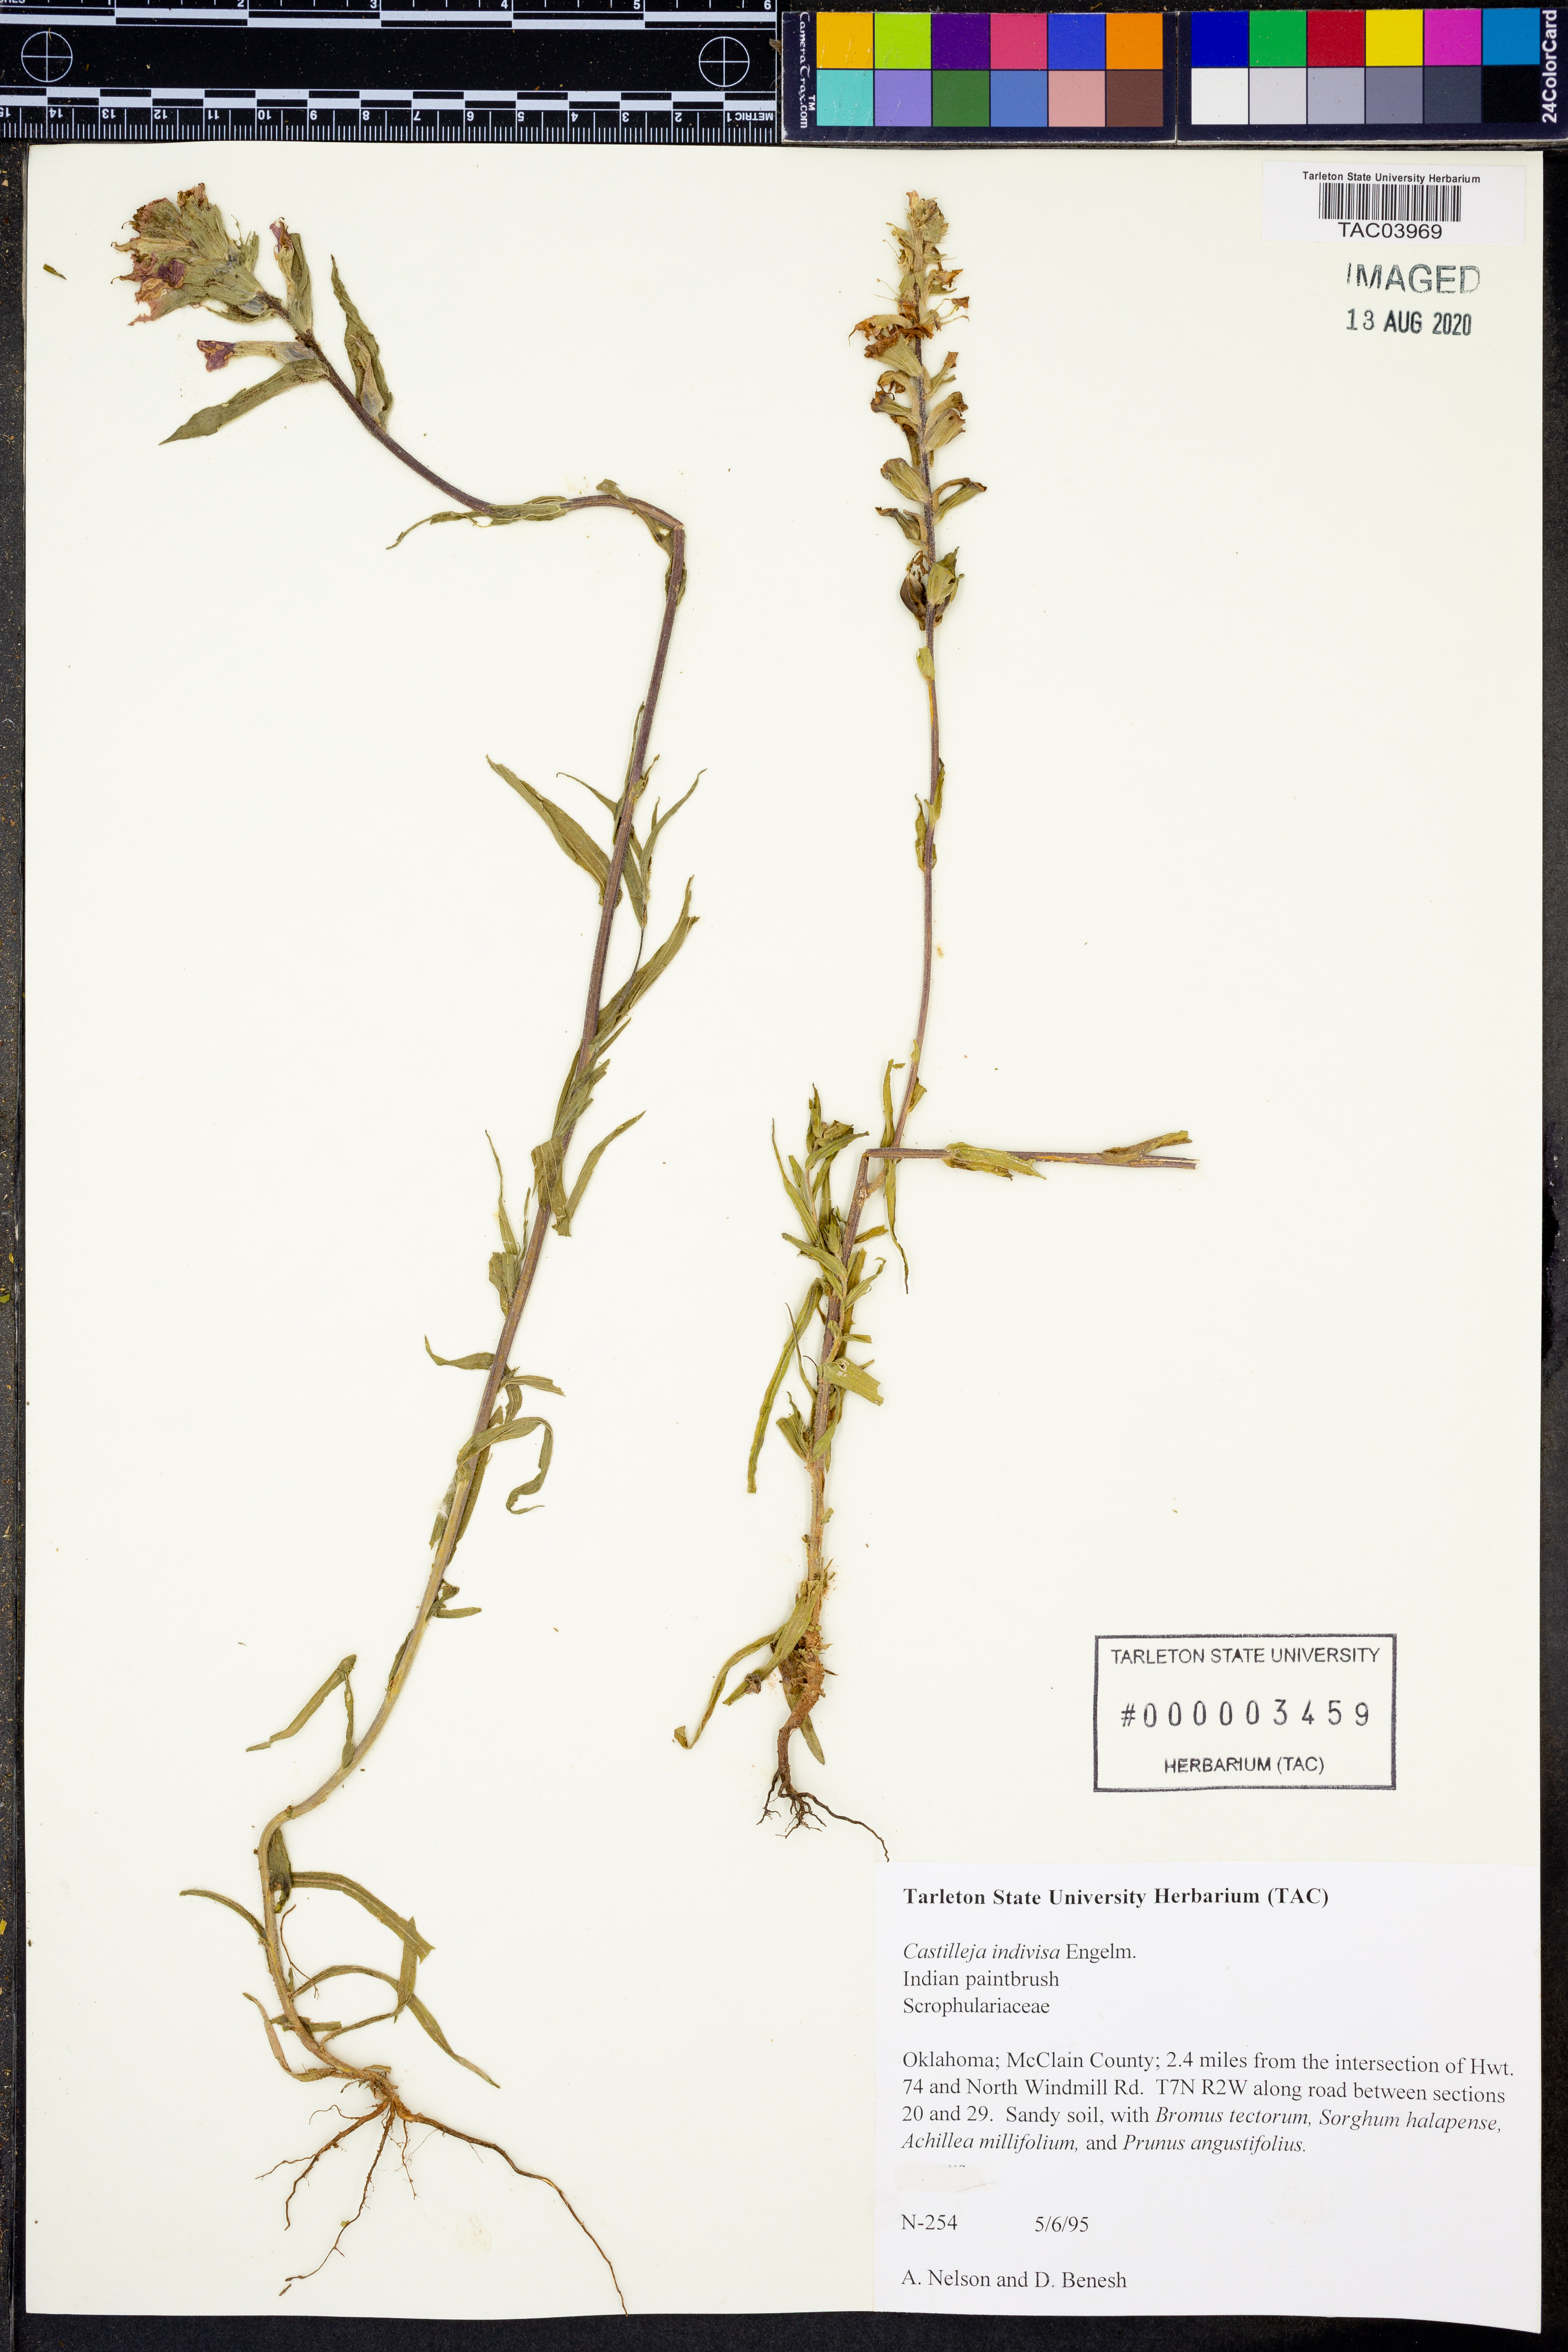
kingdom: Plantae
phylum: Tracheophyta
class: Magnoliopsida
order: Lamiales
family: Orobanchaceae
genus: Castilleja
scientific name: Castilleja indivisa
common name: Texas paintbrush
